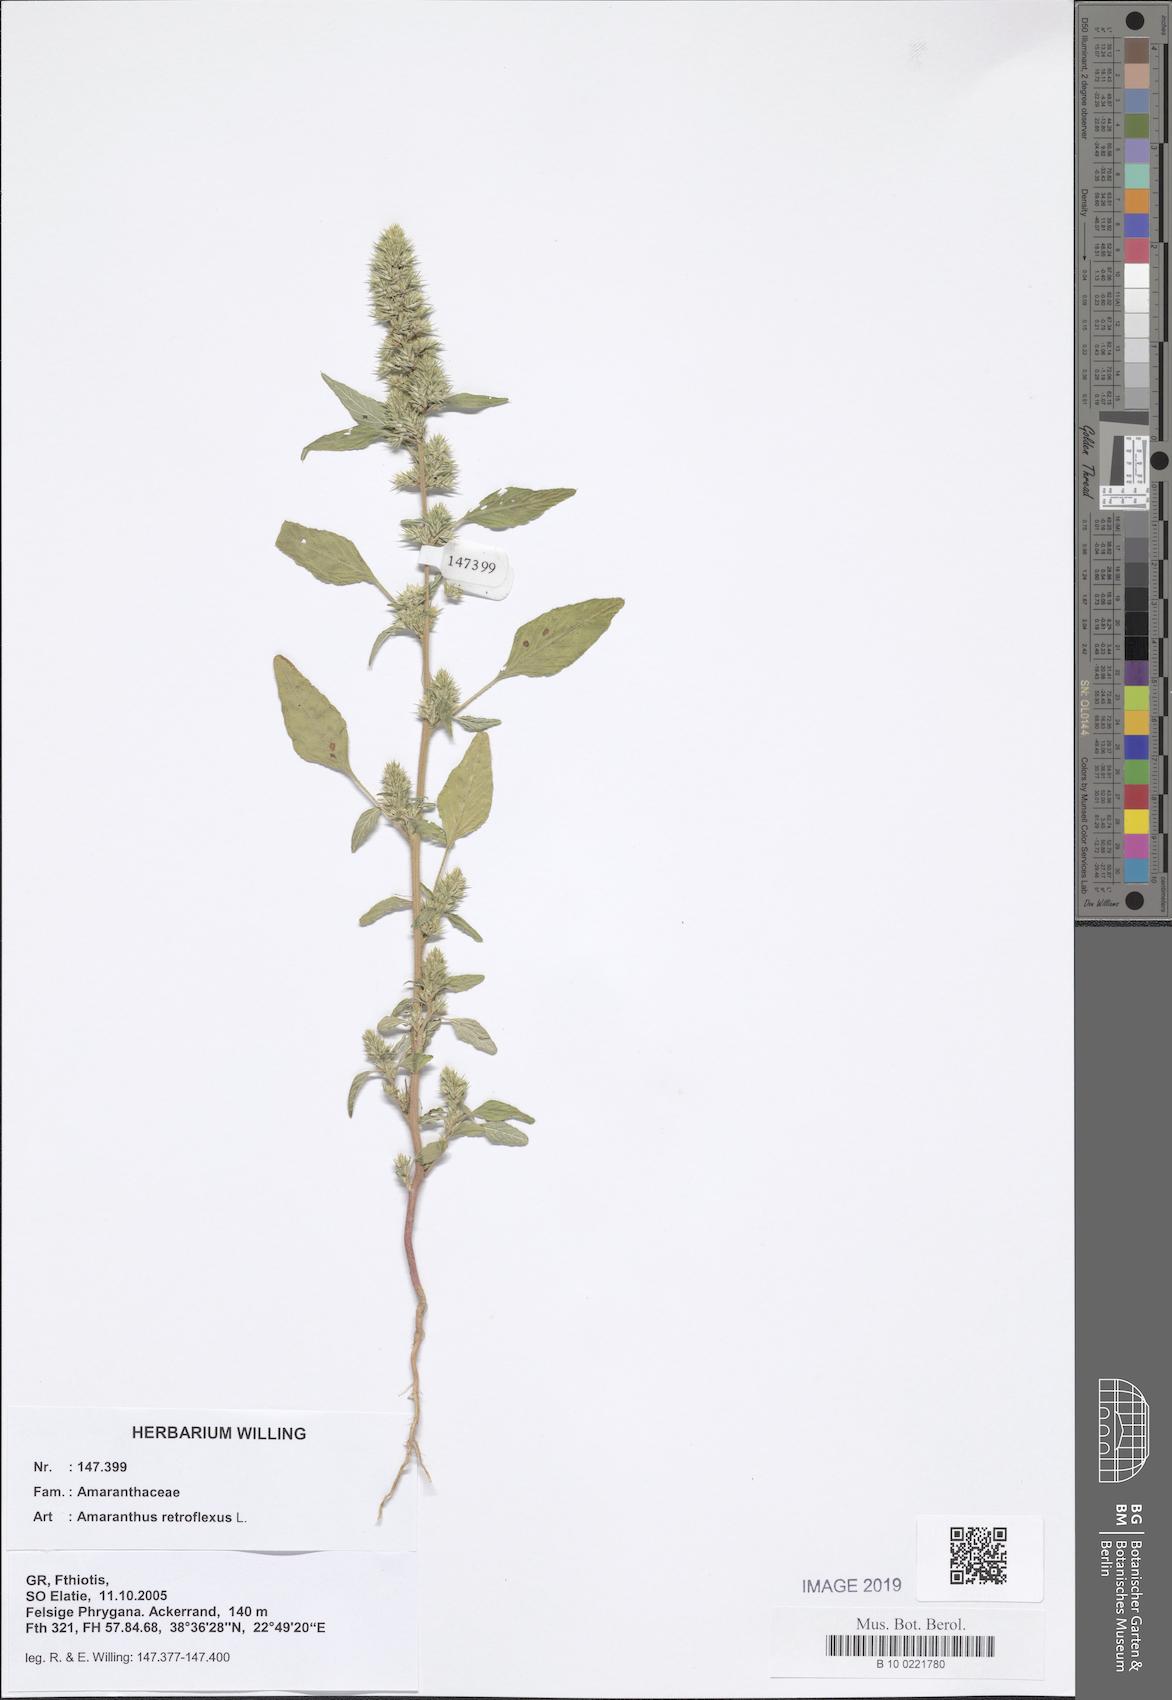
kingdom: Plantae
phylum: Tracheophyta
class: Magnoliopsida
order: Caryophyllales
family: Amaranthaceae
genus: Amaranthus
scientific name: Amaranthus retroflexus
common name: Redroot amaranth
